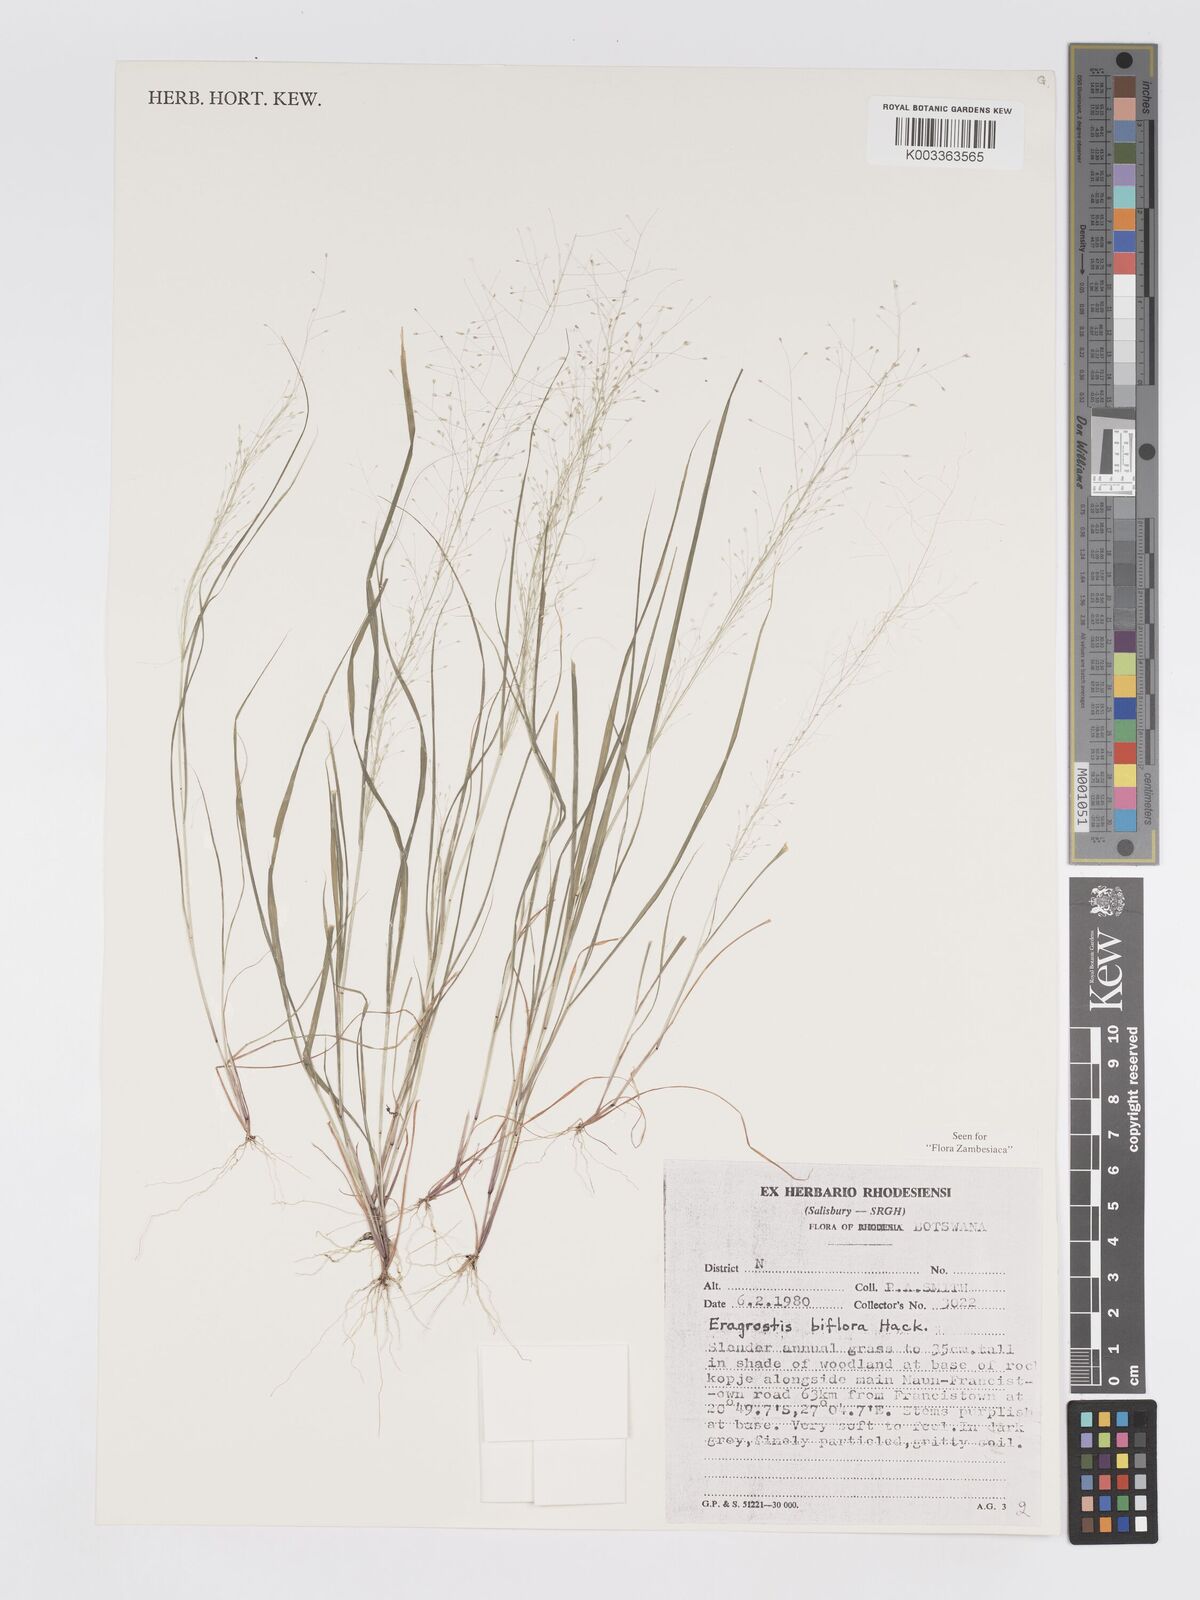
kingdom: Plantae
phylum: Tracheophyta
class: Liliopsida
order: Poales
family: Poaceae
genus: Eragrostis
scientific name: Eragrostis biflora
